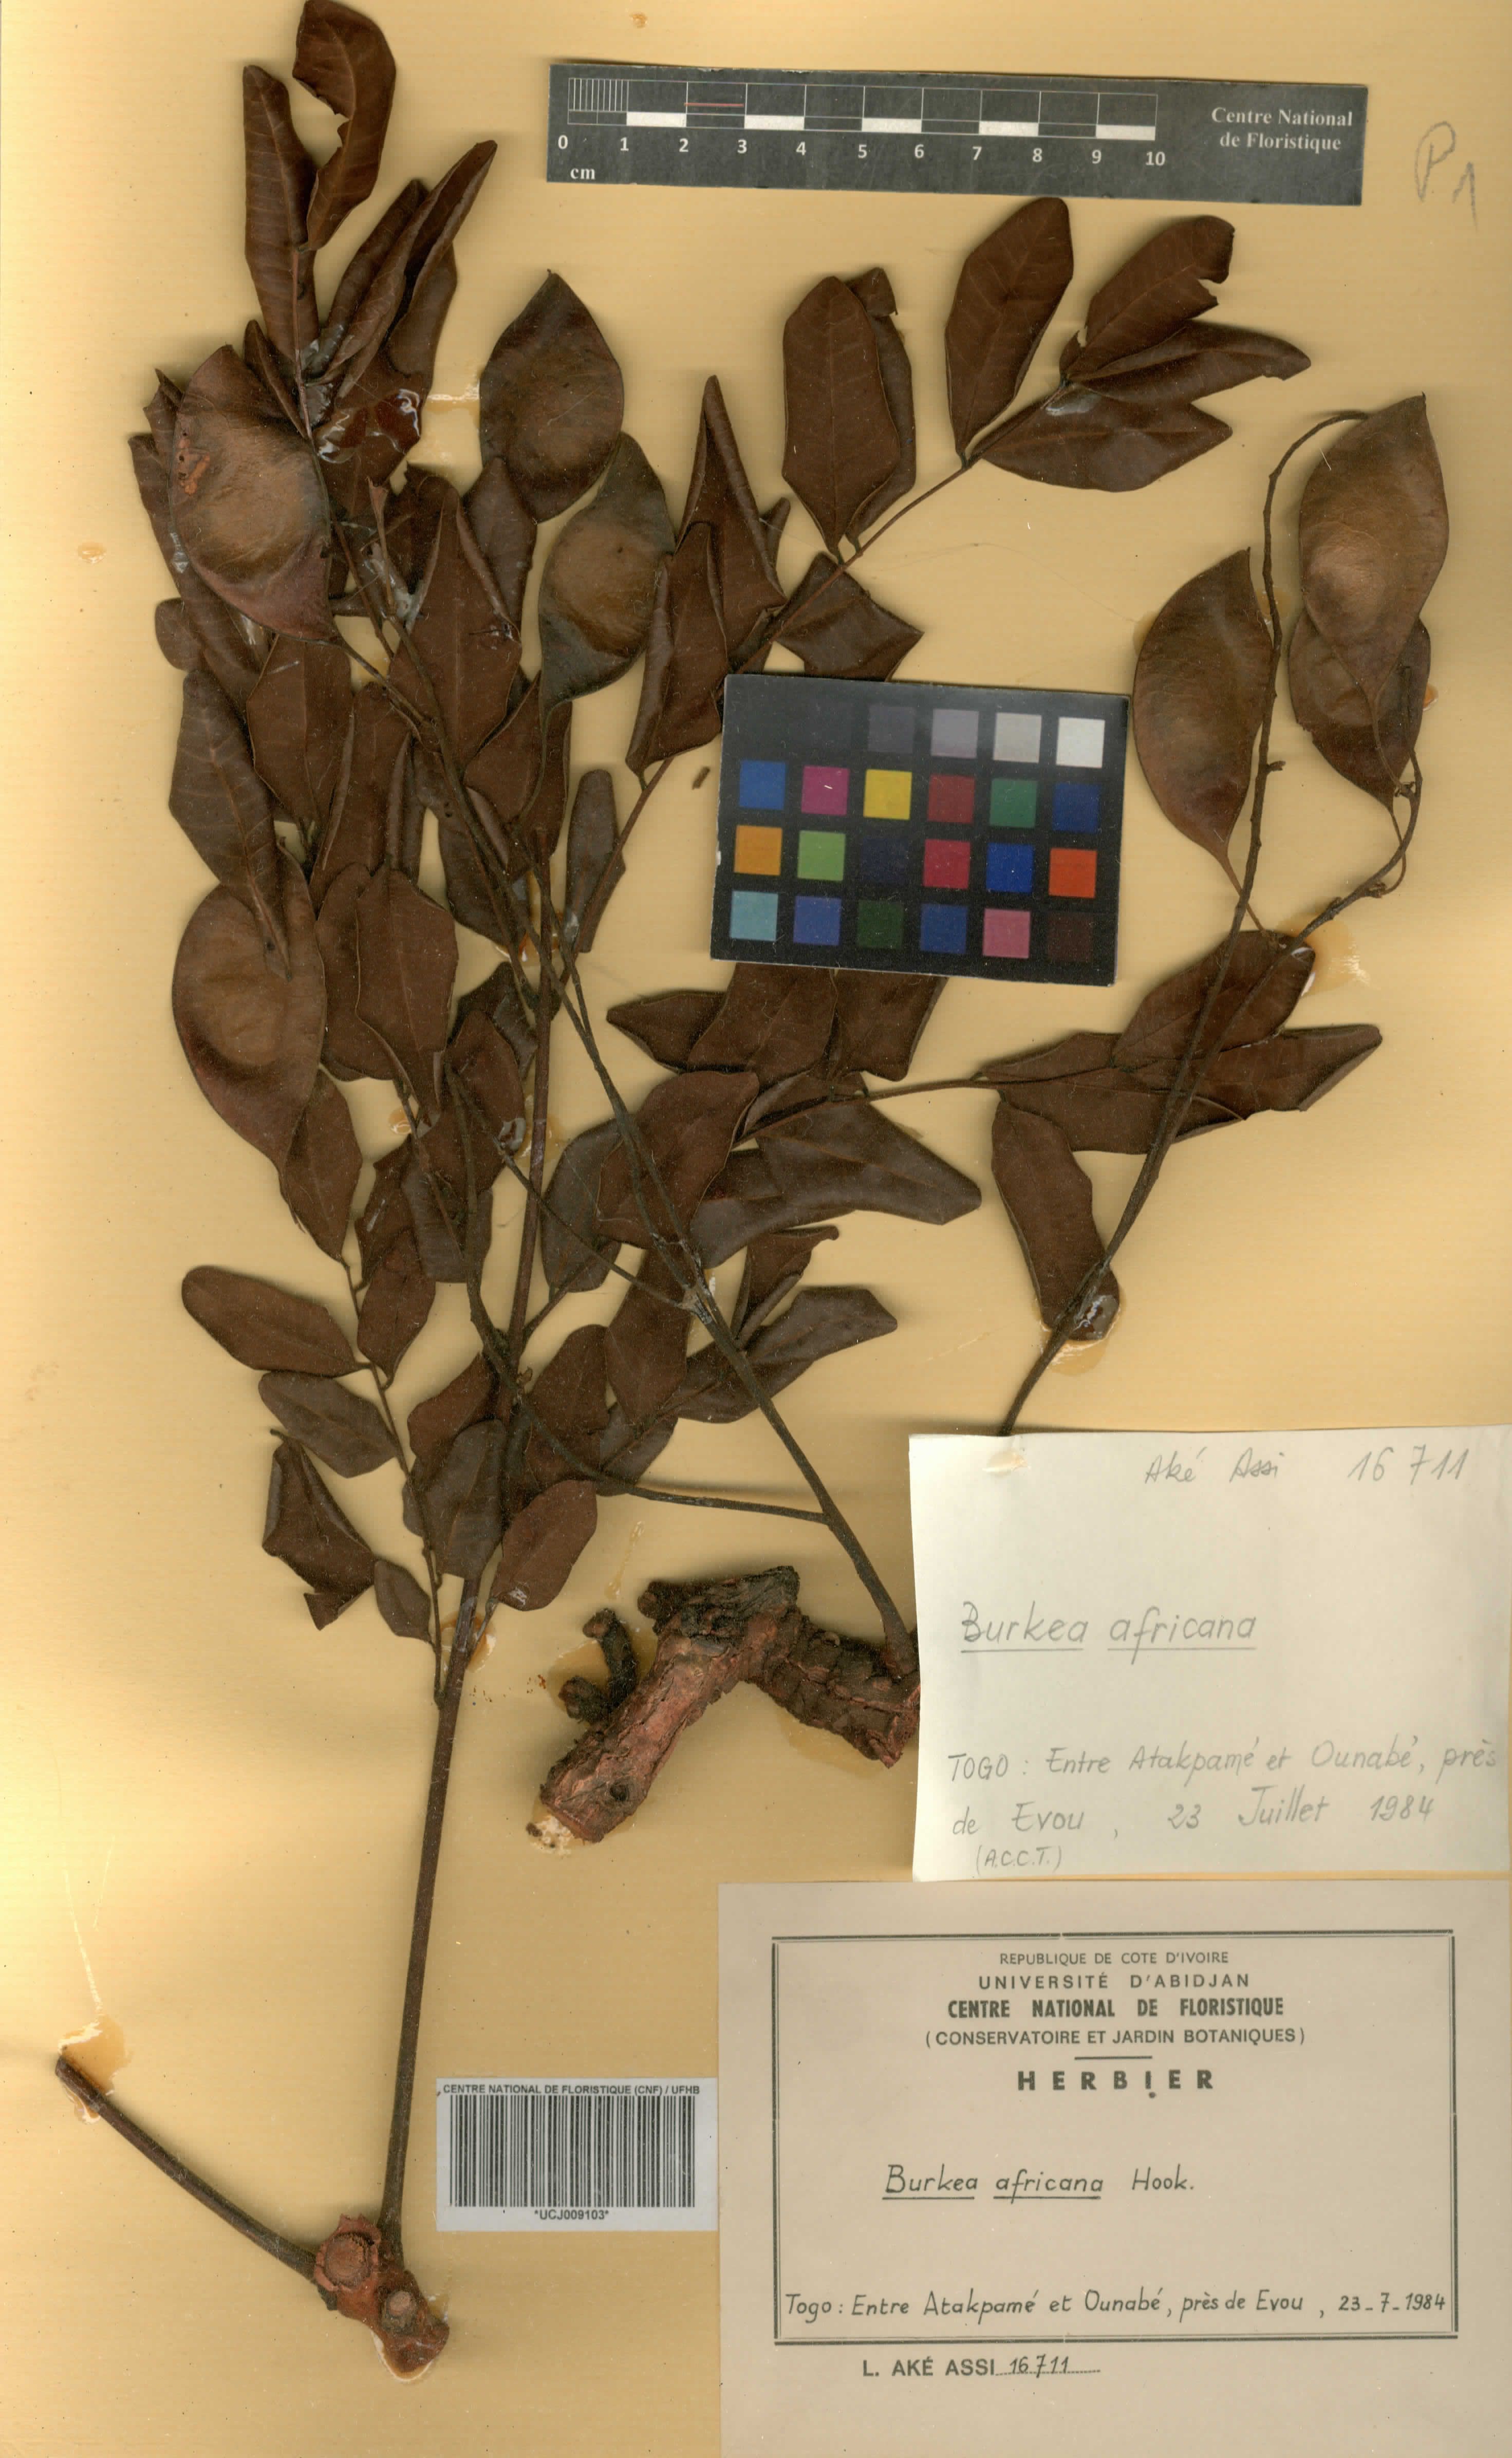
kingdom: Plantae
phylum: Tracheophyta
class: Magnoliopsida
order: Fabales
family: Fabaceae
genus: Burkea
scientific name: Burkea africana
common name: Mkalati tree
